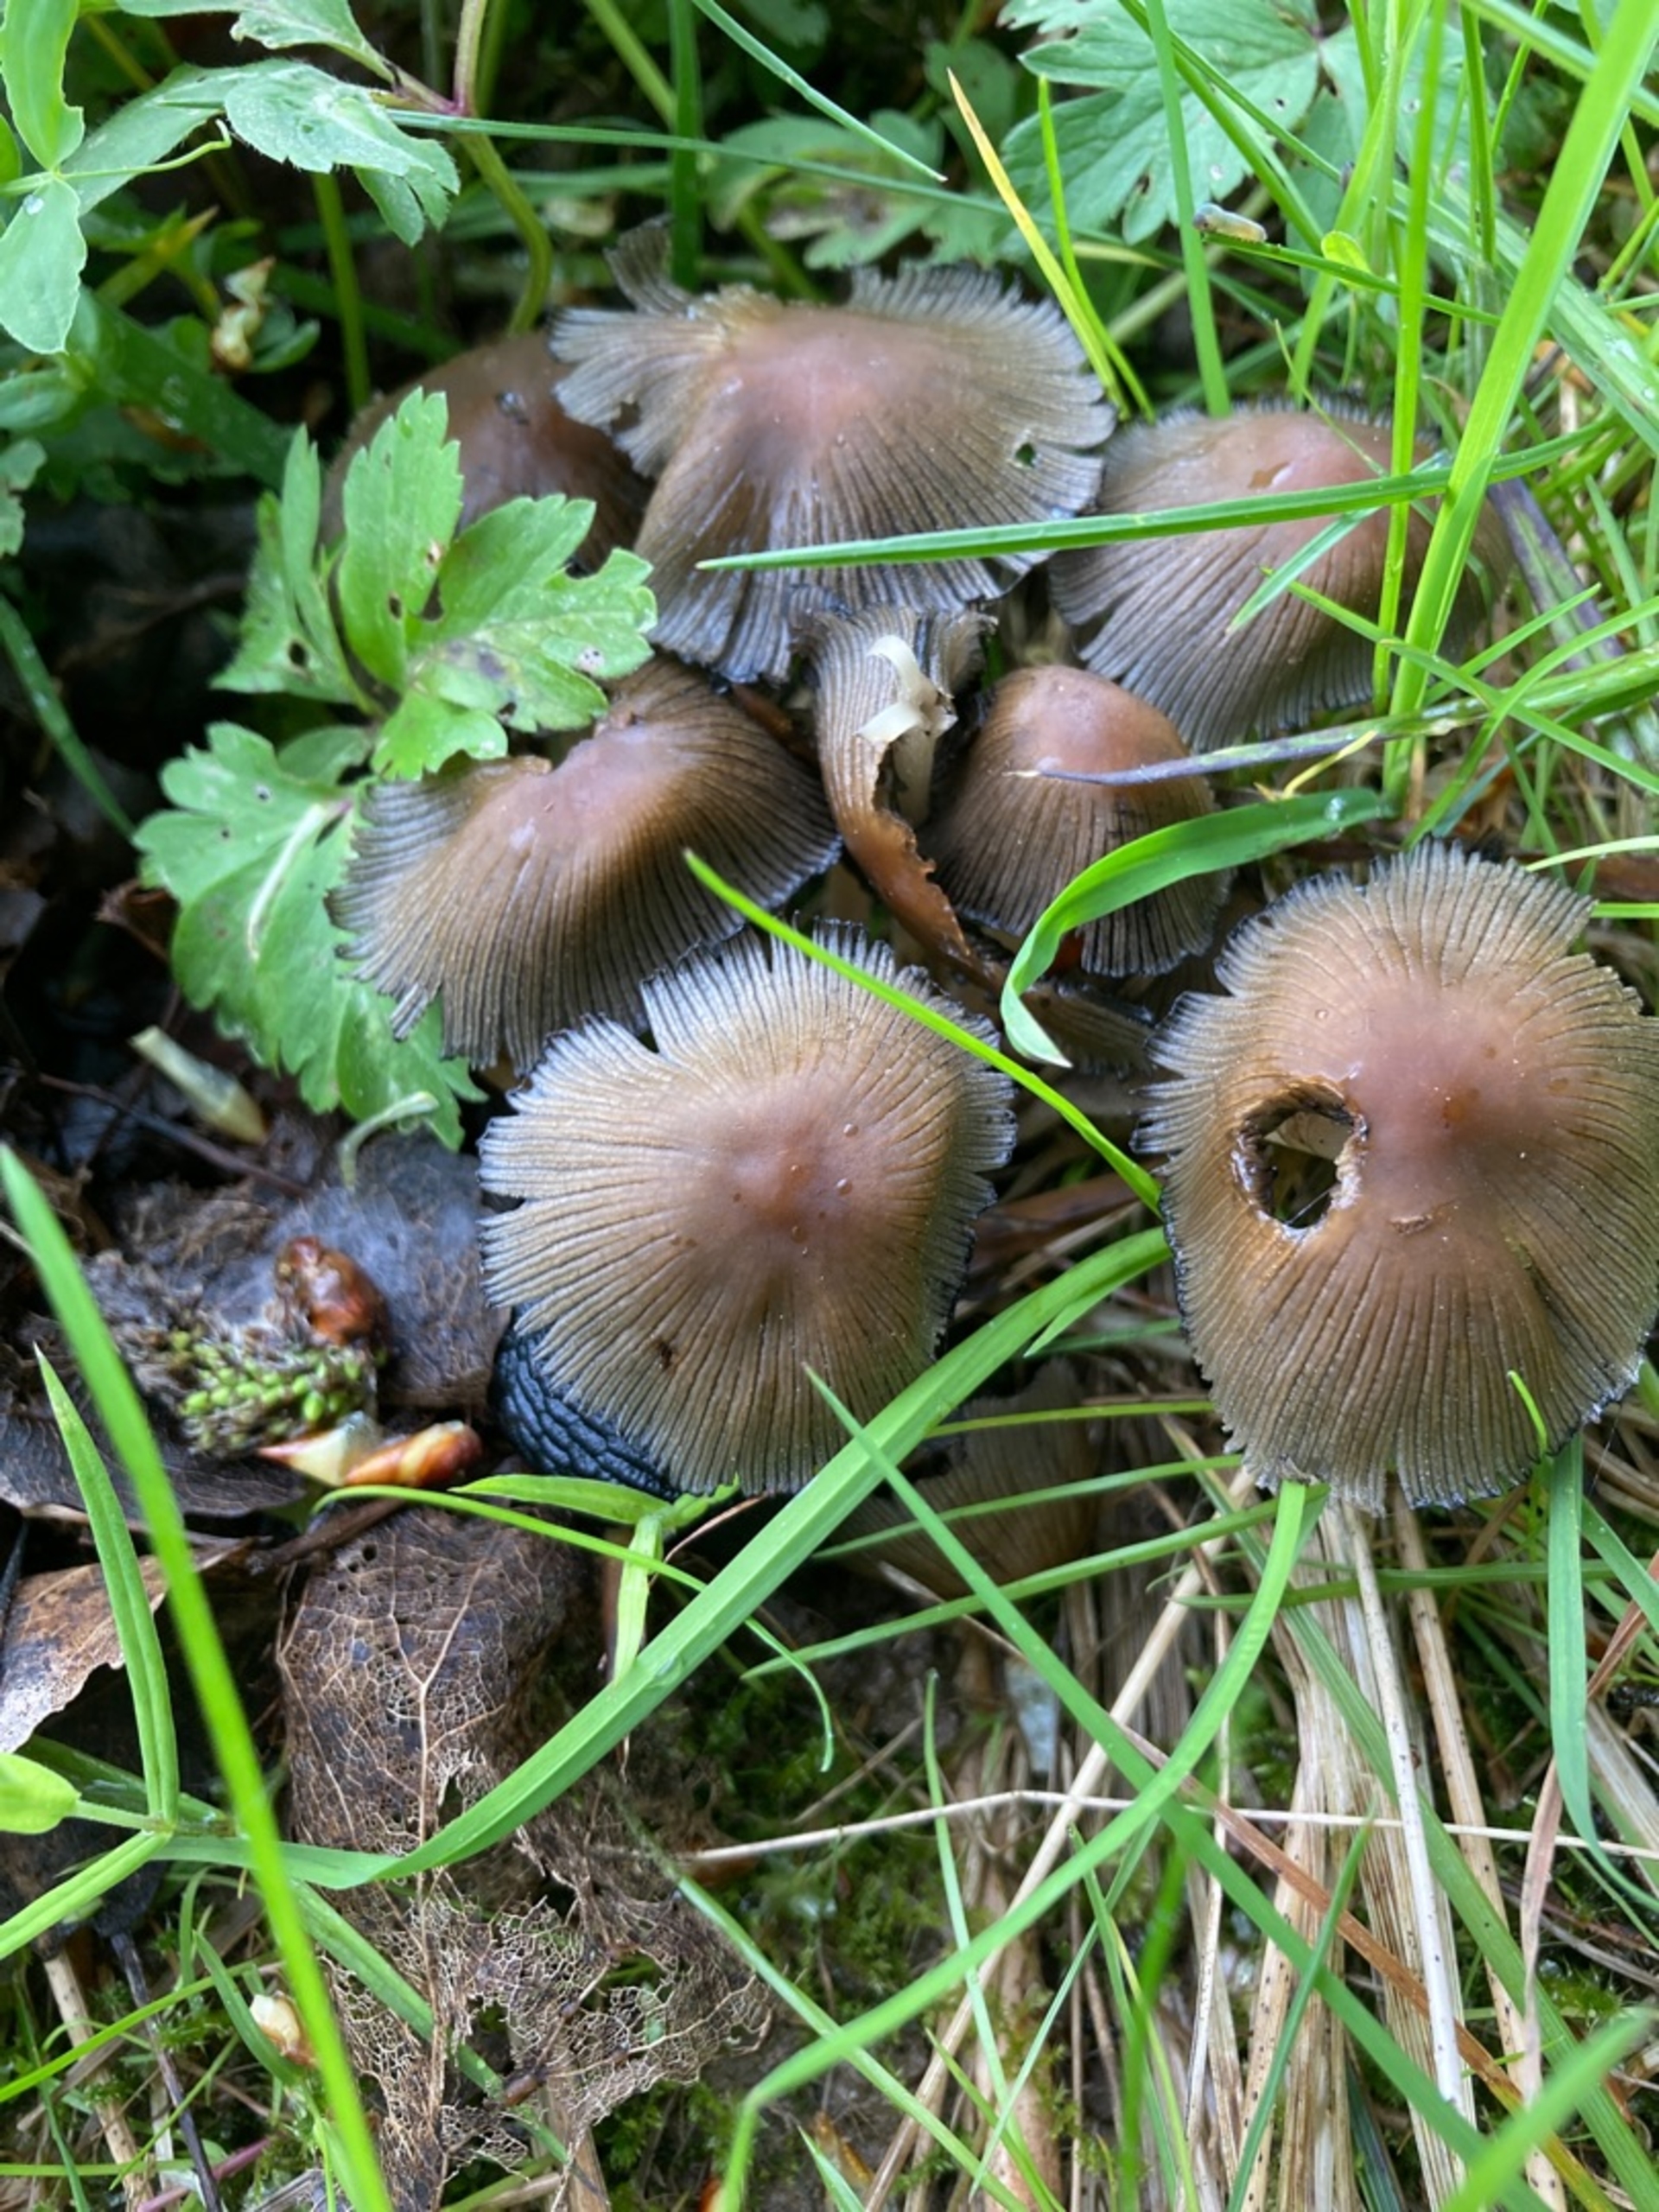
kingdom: Fungi
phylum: Basidiomycota
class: Agaricomycetes
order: Agaricales
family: Psathyrellaceae
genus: Coprinopsis
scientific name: Coprinopsis
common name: Blækhat
